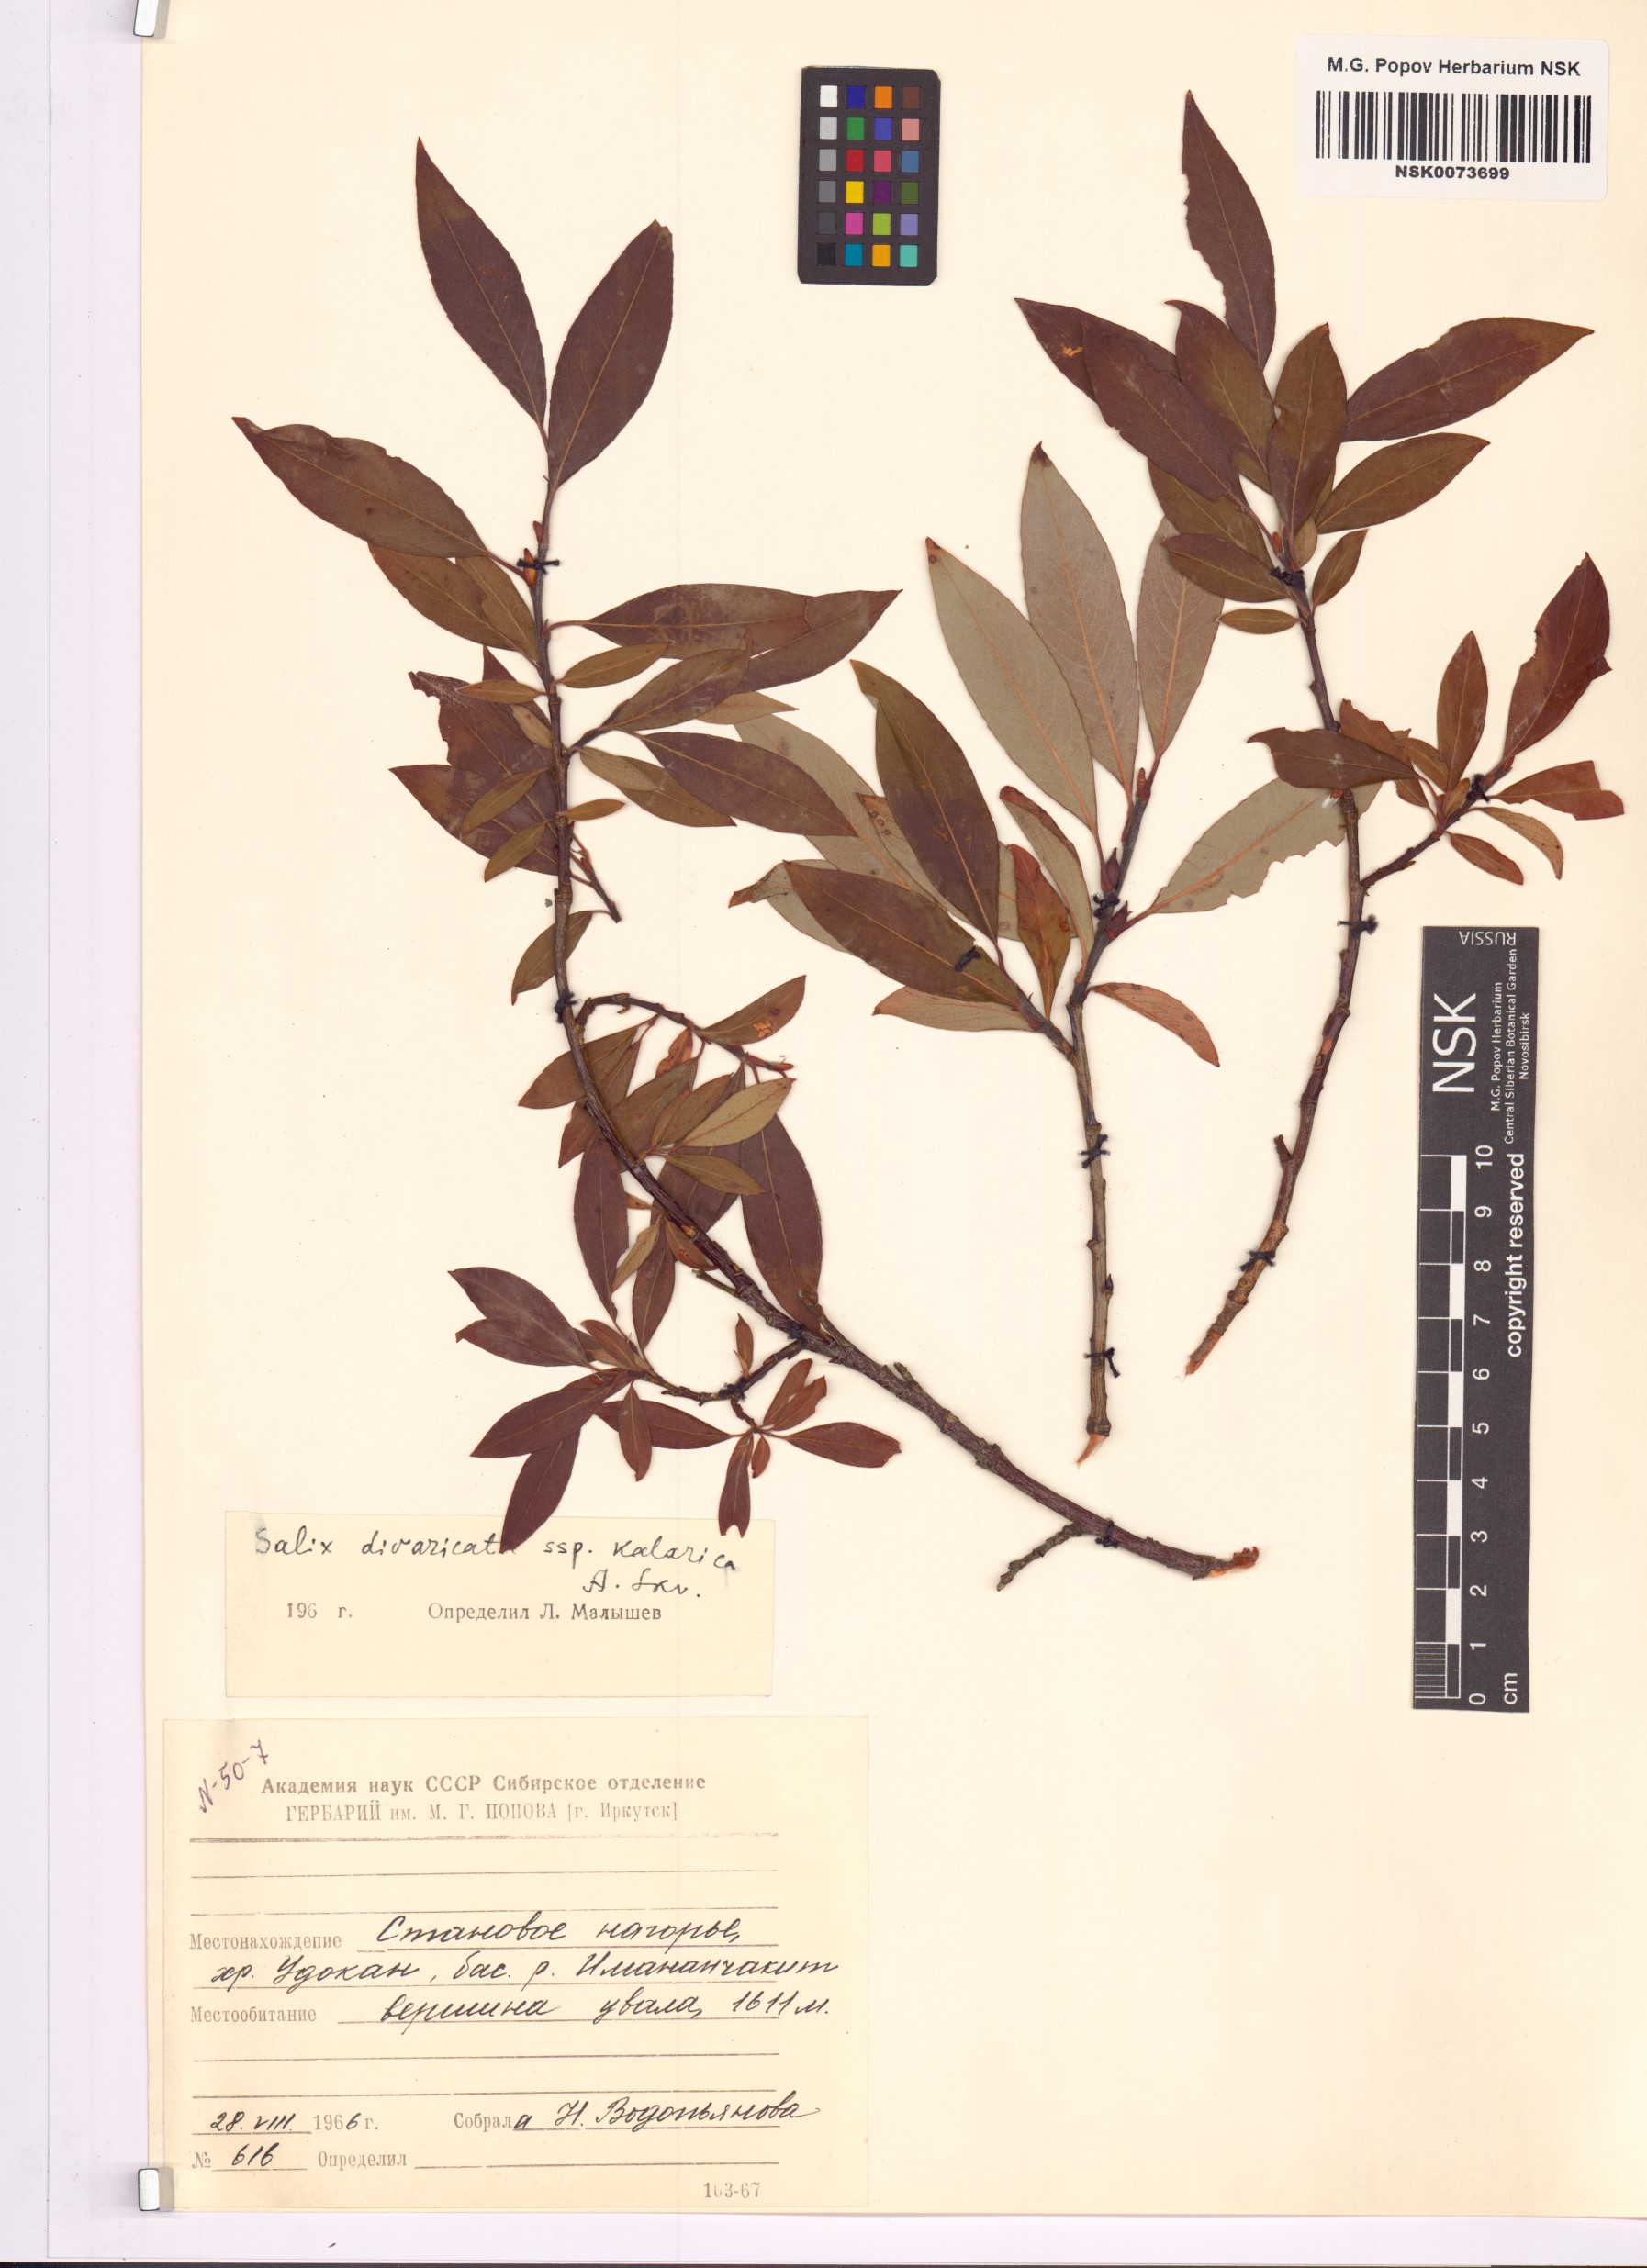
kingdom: Plantae
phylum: Tracheophyta
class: Magnoliopsida
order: Malpighiales
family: Salicaceae
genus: Salix
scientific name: Salix kalarica
